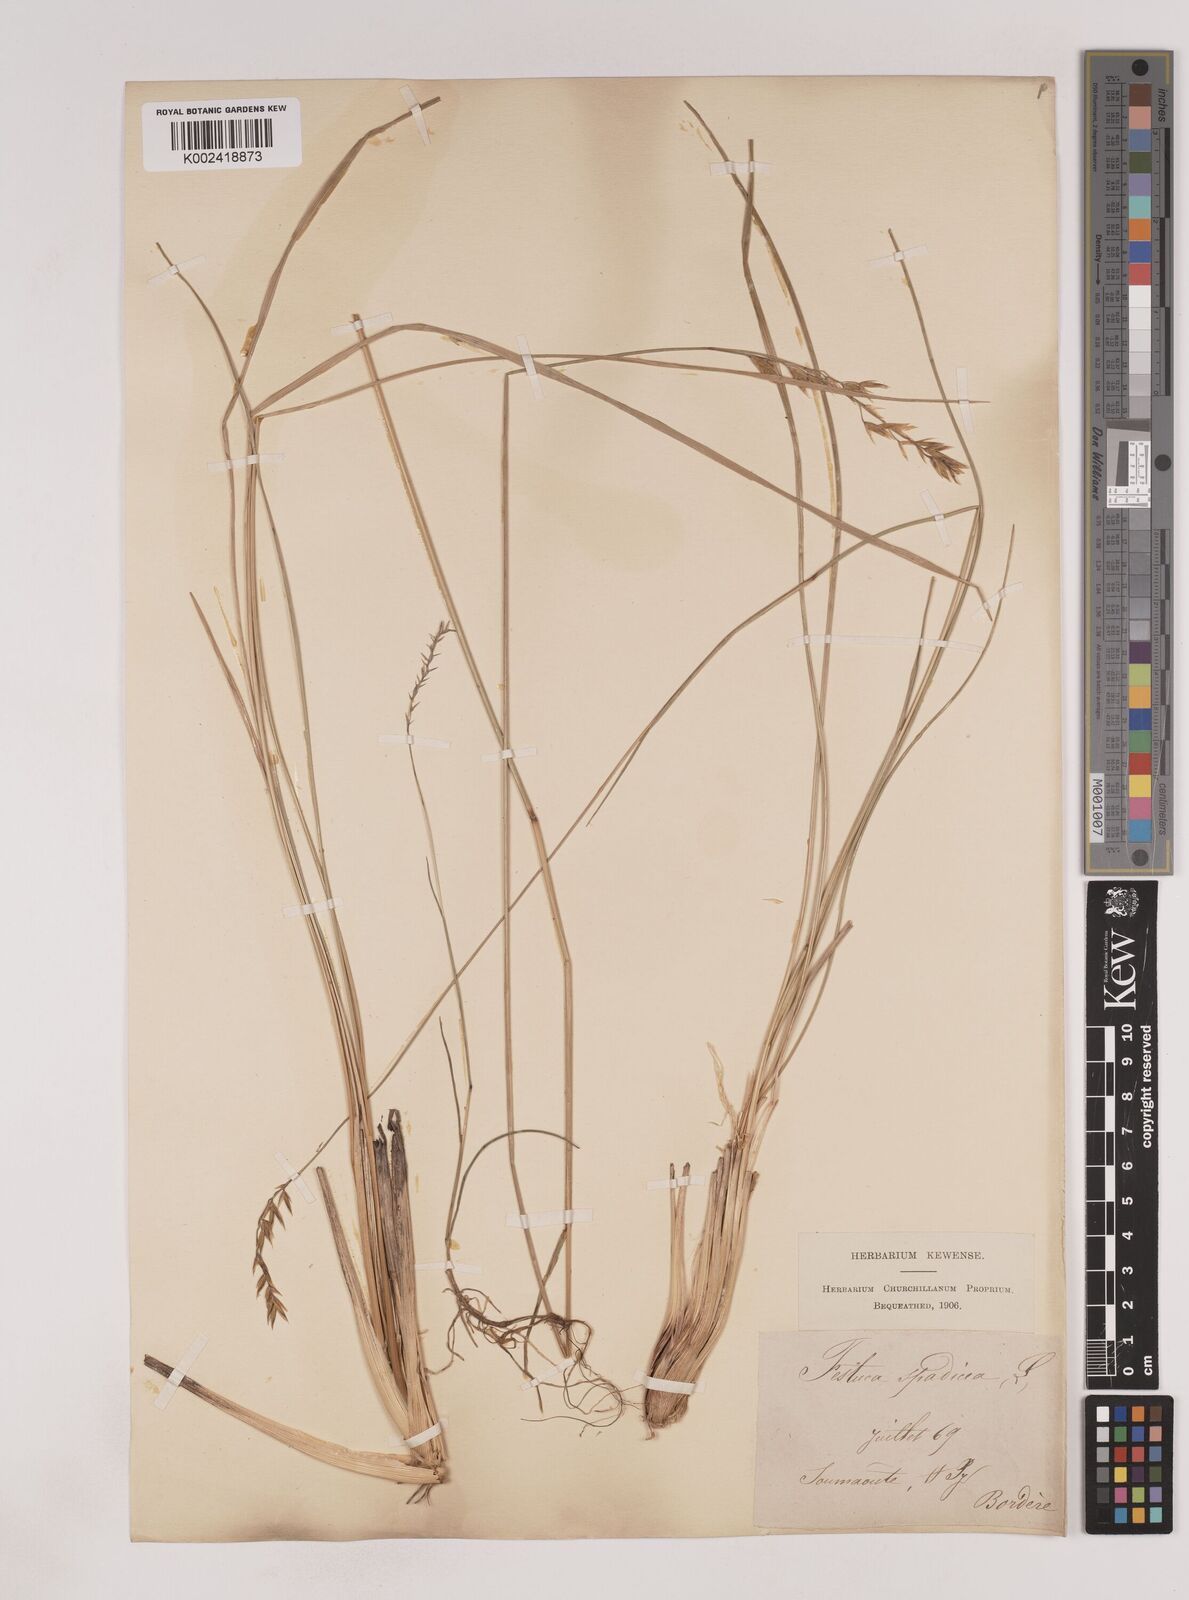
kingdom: Plantae
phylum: Tracheophyta
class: Liliopsida
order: Poales
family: Poaceae
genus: Patzkea
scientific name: Patzkea paniculata
